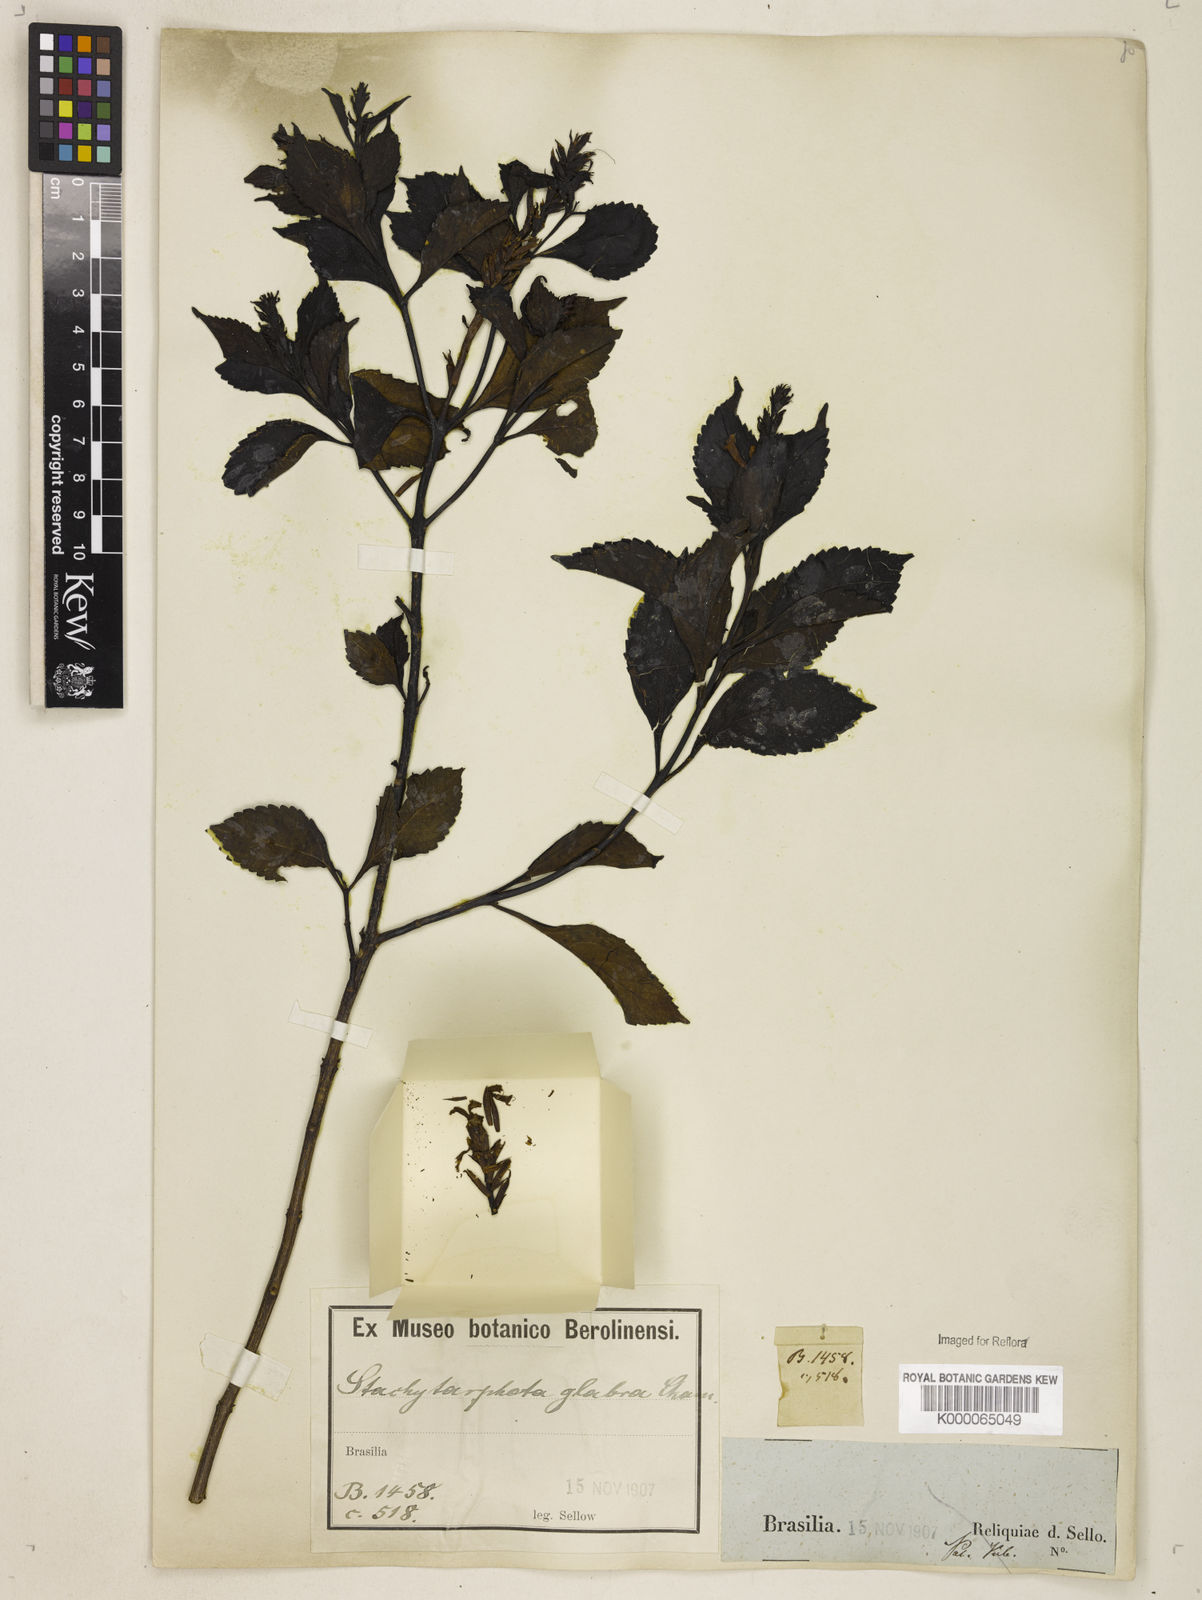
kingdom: Plantae
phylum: Tracheophyta
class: Magnoliopsida
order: Lamiales
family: Verbenaceae
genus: Stachytarpheta
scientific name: Stachytarpheta glabra
